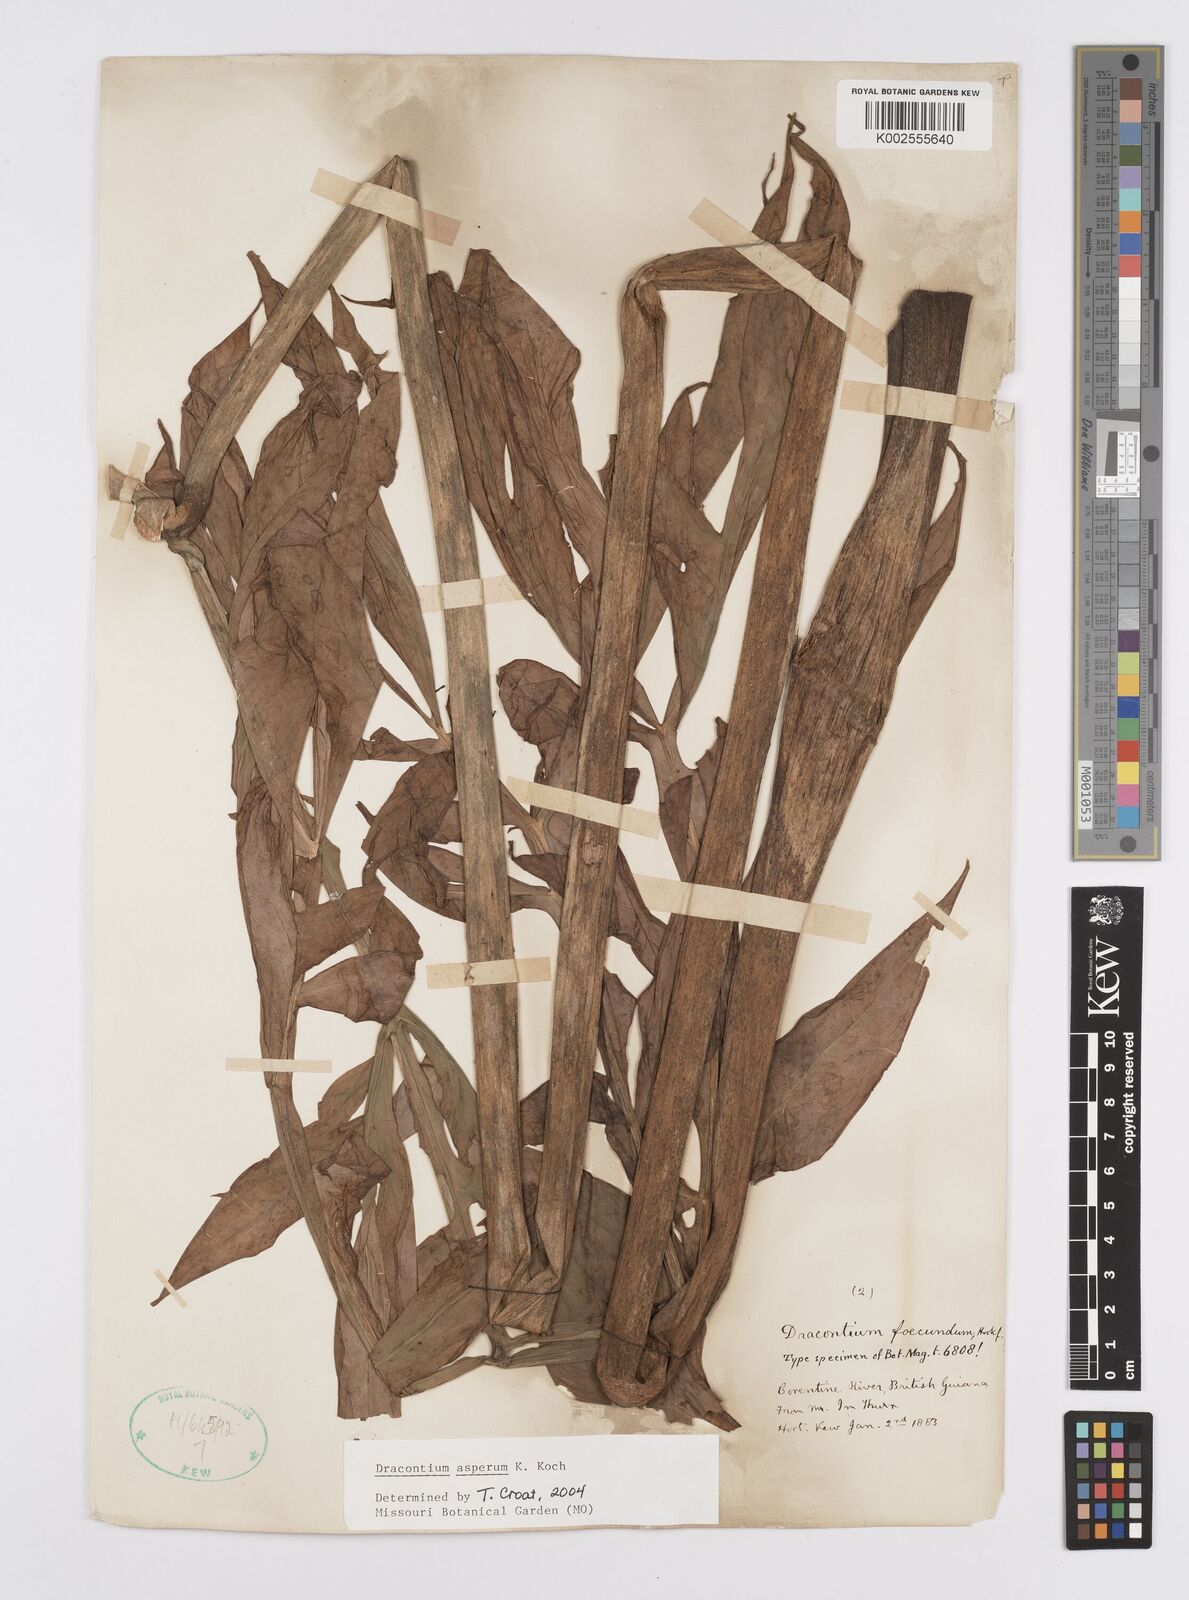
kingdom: Plantae
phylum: Tracheophyta
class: Liliopsida
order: Alismatales
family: Araceae
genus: Dracontium
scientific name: Dracontium asperum
